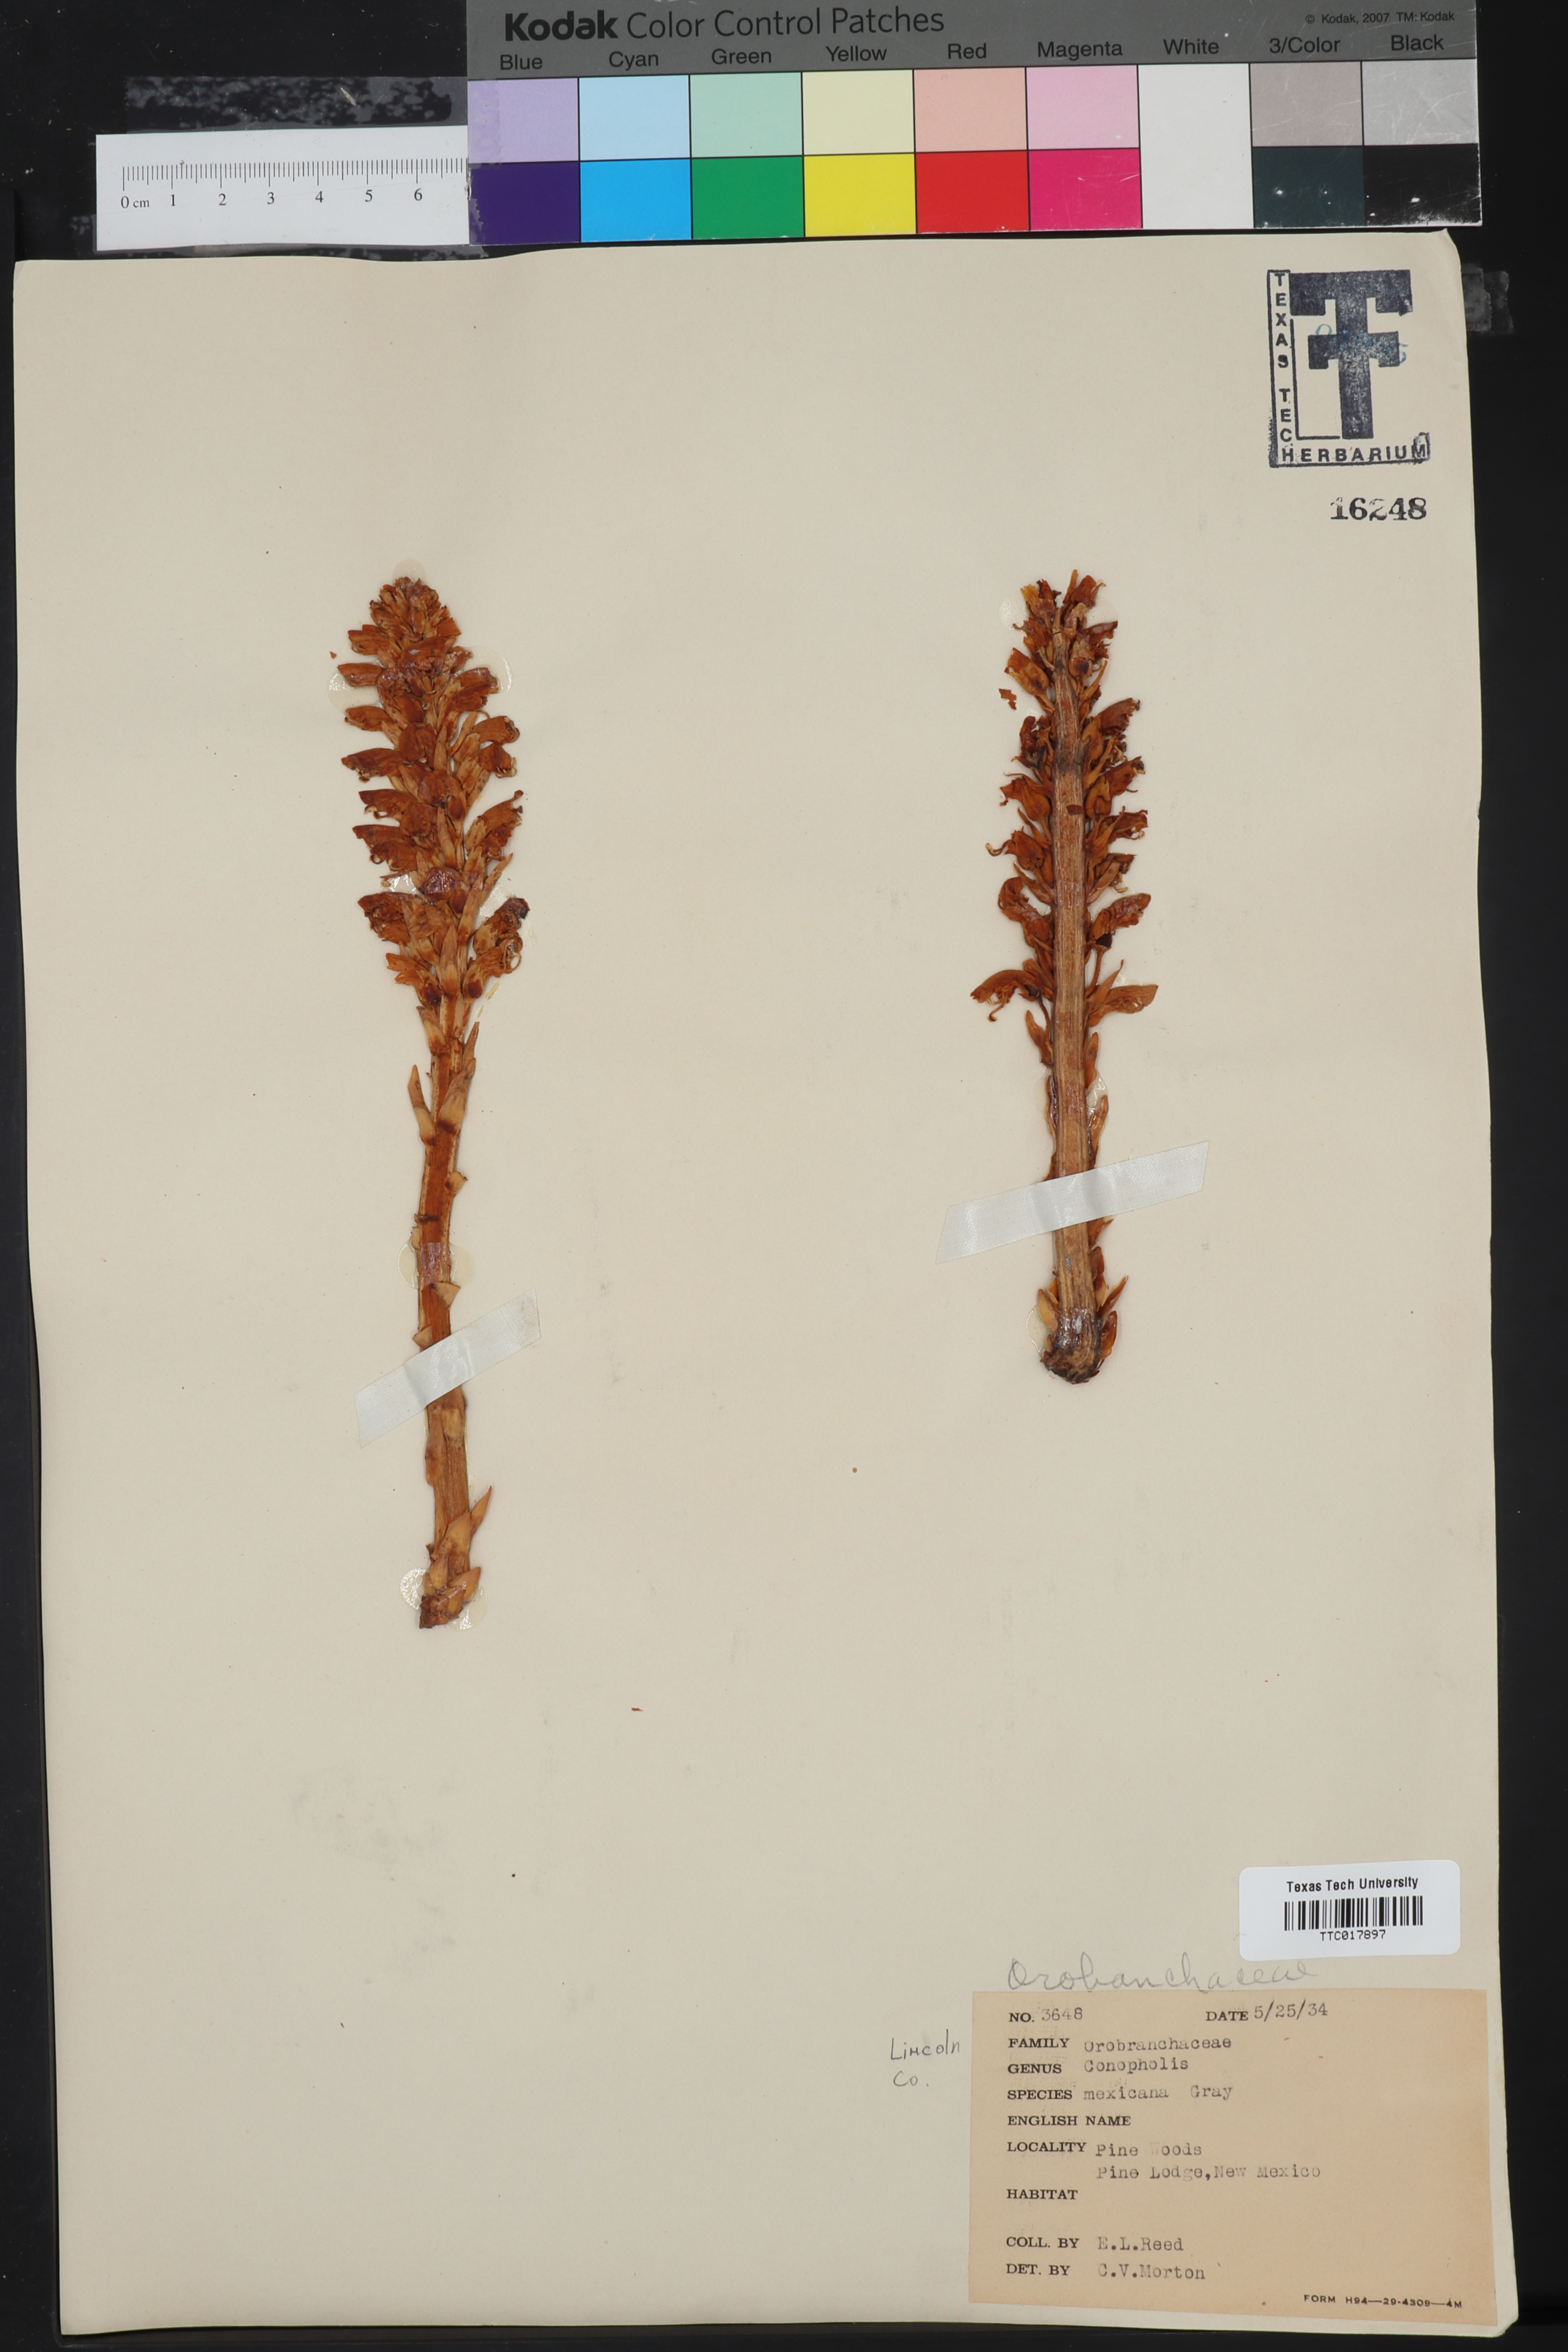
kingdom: Plantae
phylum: Tracheophyta
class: Magnoliopsida
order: Lamiales
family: Orobanchaceae
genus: Conopholis
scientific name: Conopholis alpina
